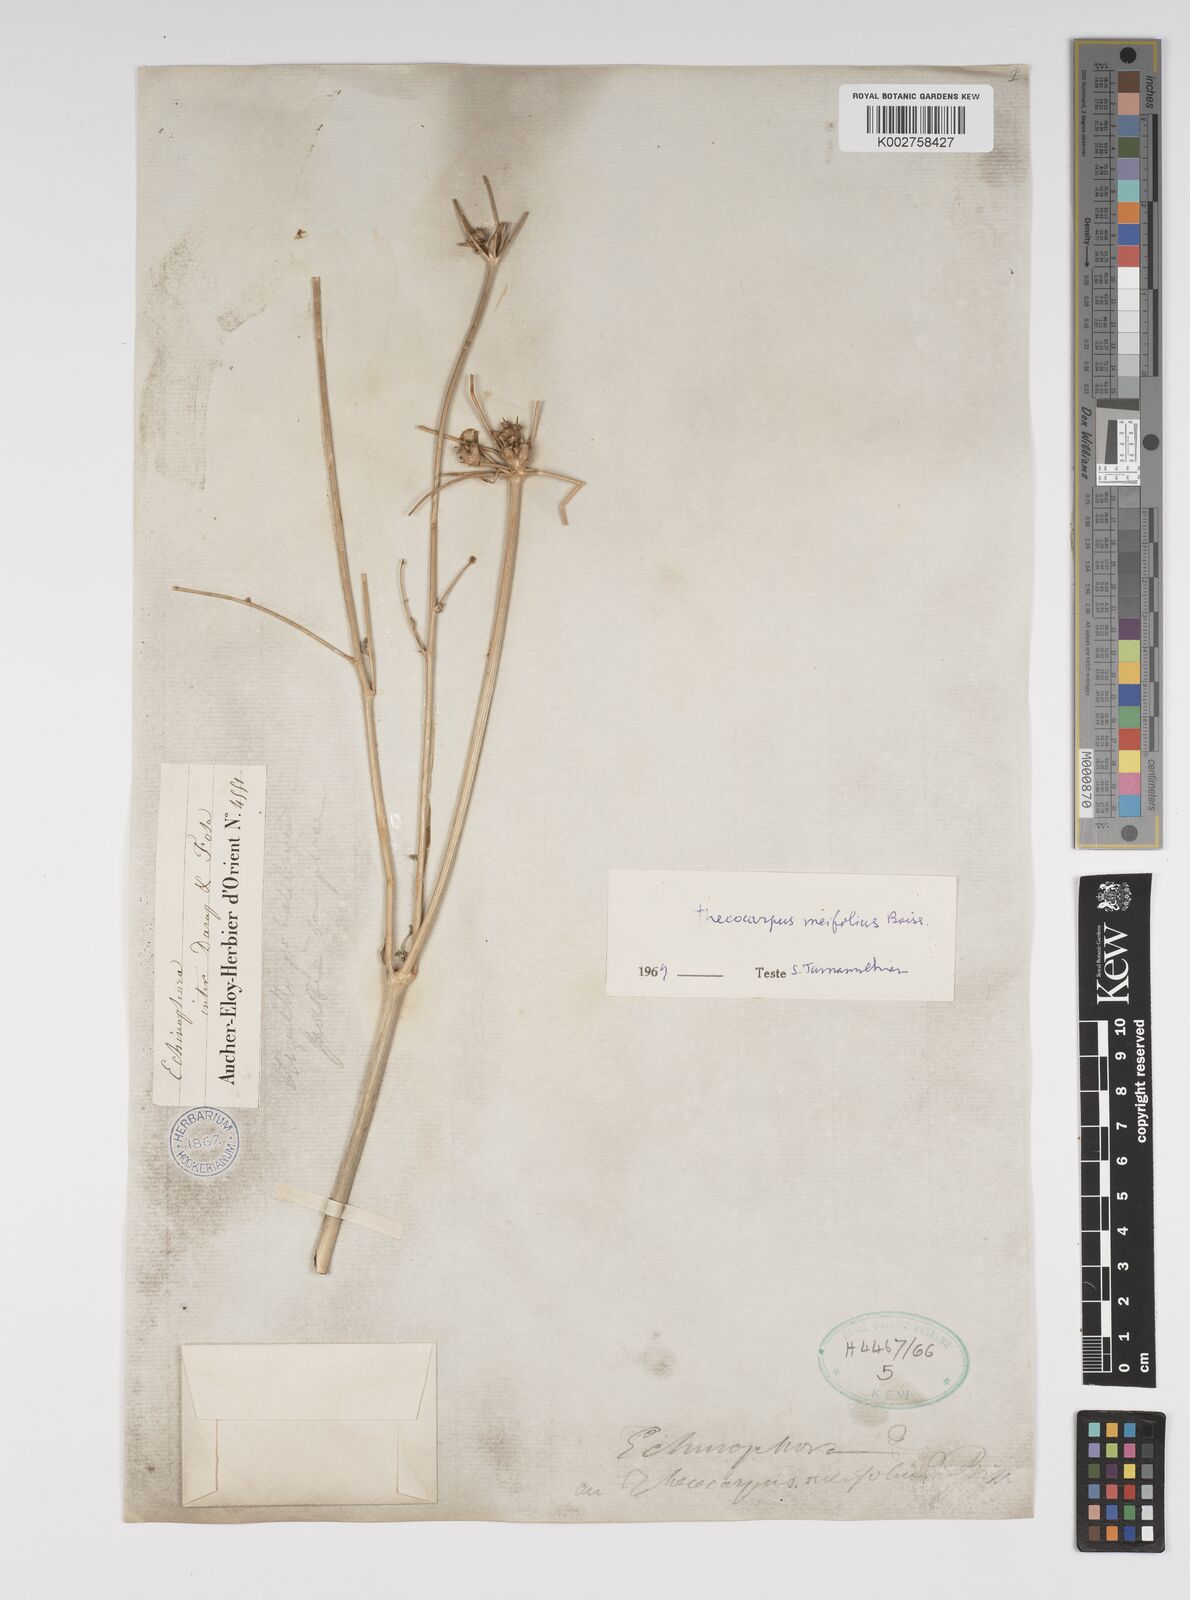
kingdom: Plantae
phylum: Tracheophyta
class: Magnoliopsida
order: Apiales
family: Apiaceae
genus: Thecocarpus
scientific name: Thecocarpus
